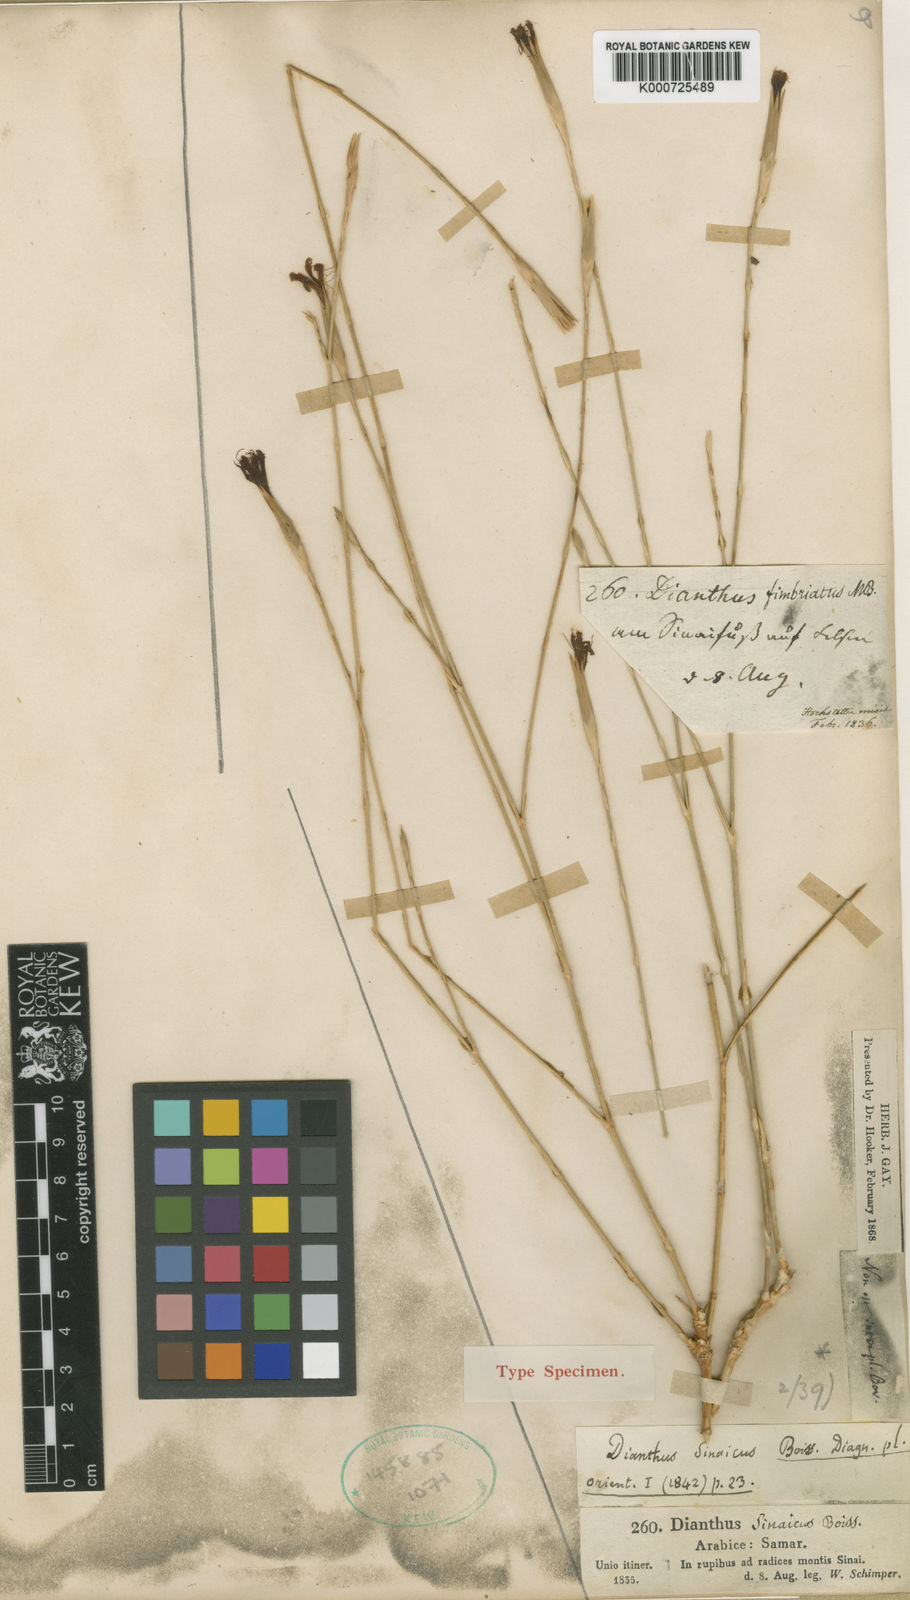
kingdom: Plantae
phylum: Tracheophyta
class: Magnoliopsida
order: Caryophyllales
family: Caryophyllaceae
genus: Dianthus
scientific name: Dianthus sinaicus
